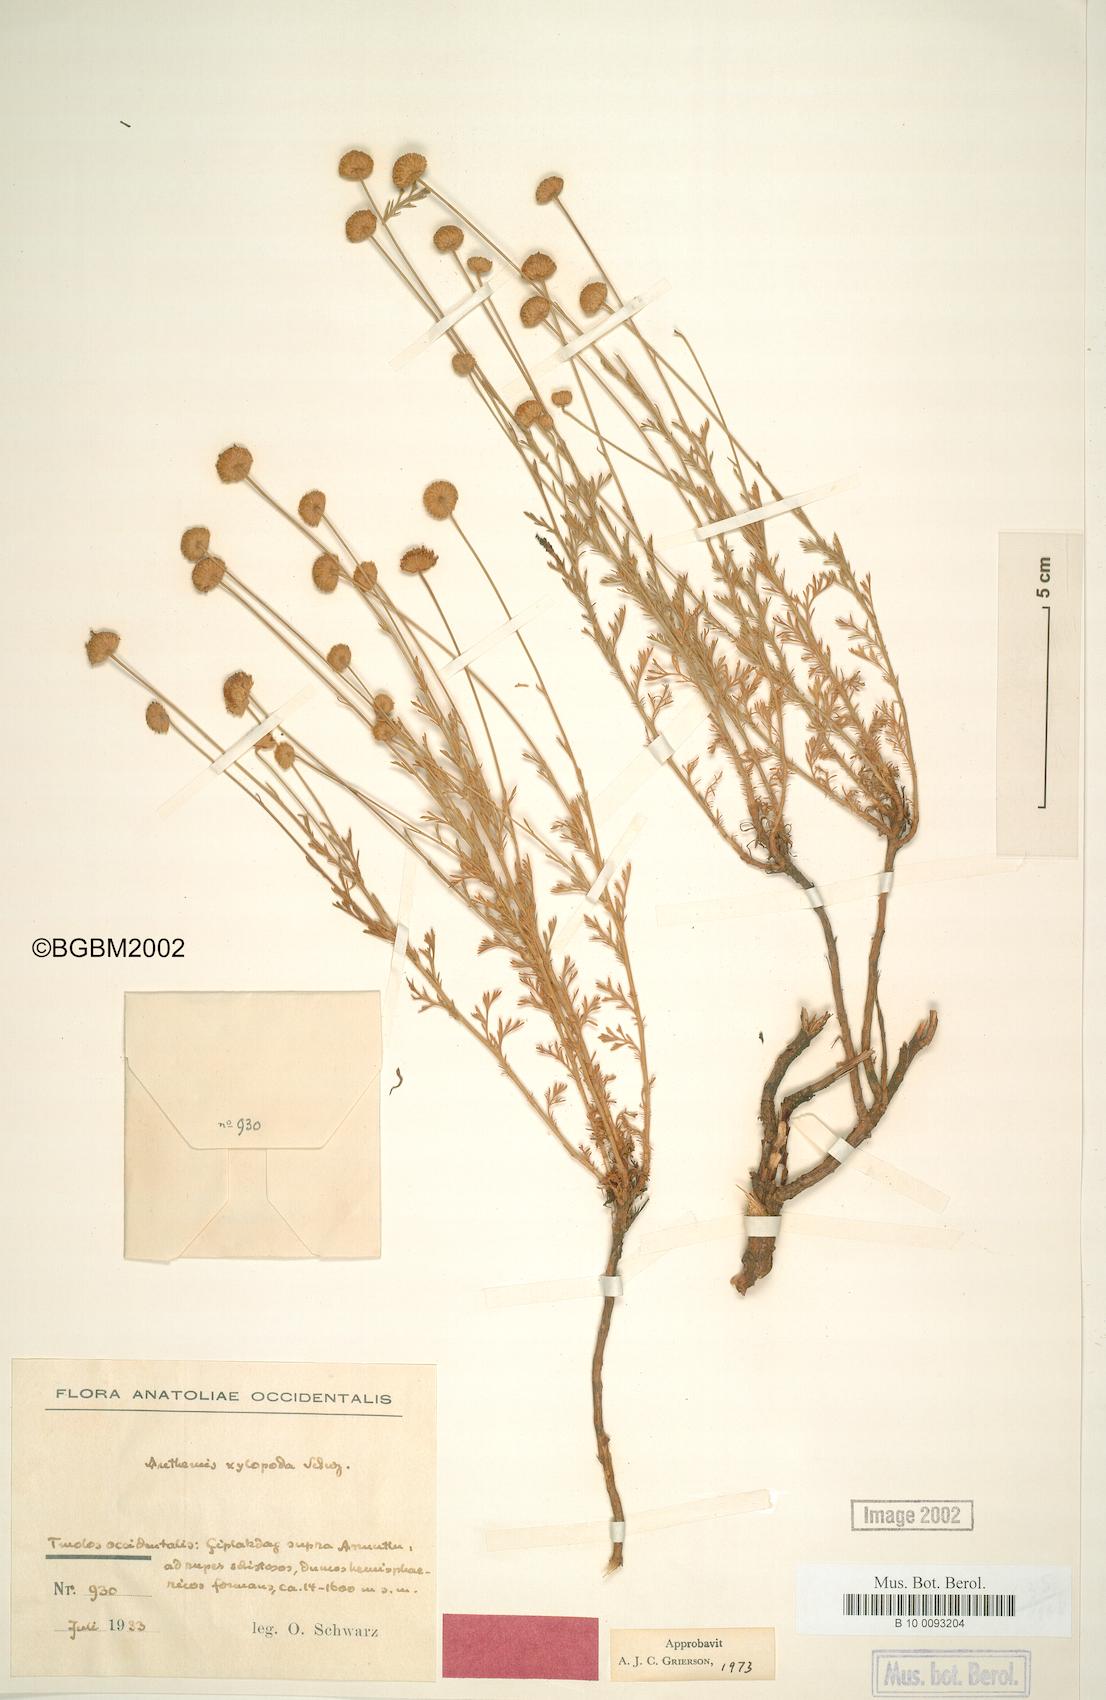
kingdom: Plantae
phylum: Tracheophyta
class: Magnoliopsida
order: Asterales
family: Asteraceae
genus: Anthemis
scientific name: Anthemis xylopoda
